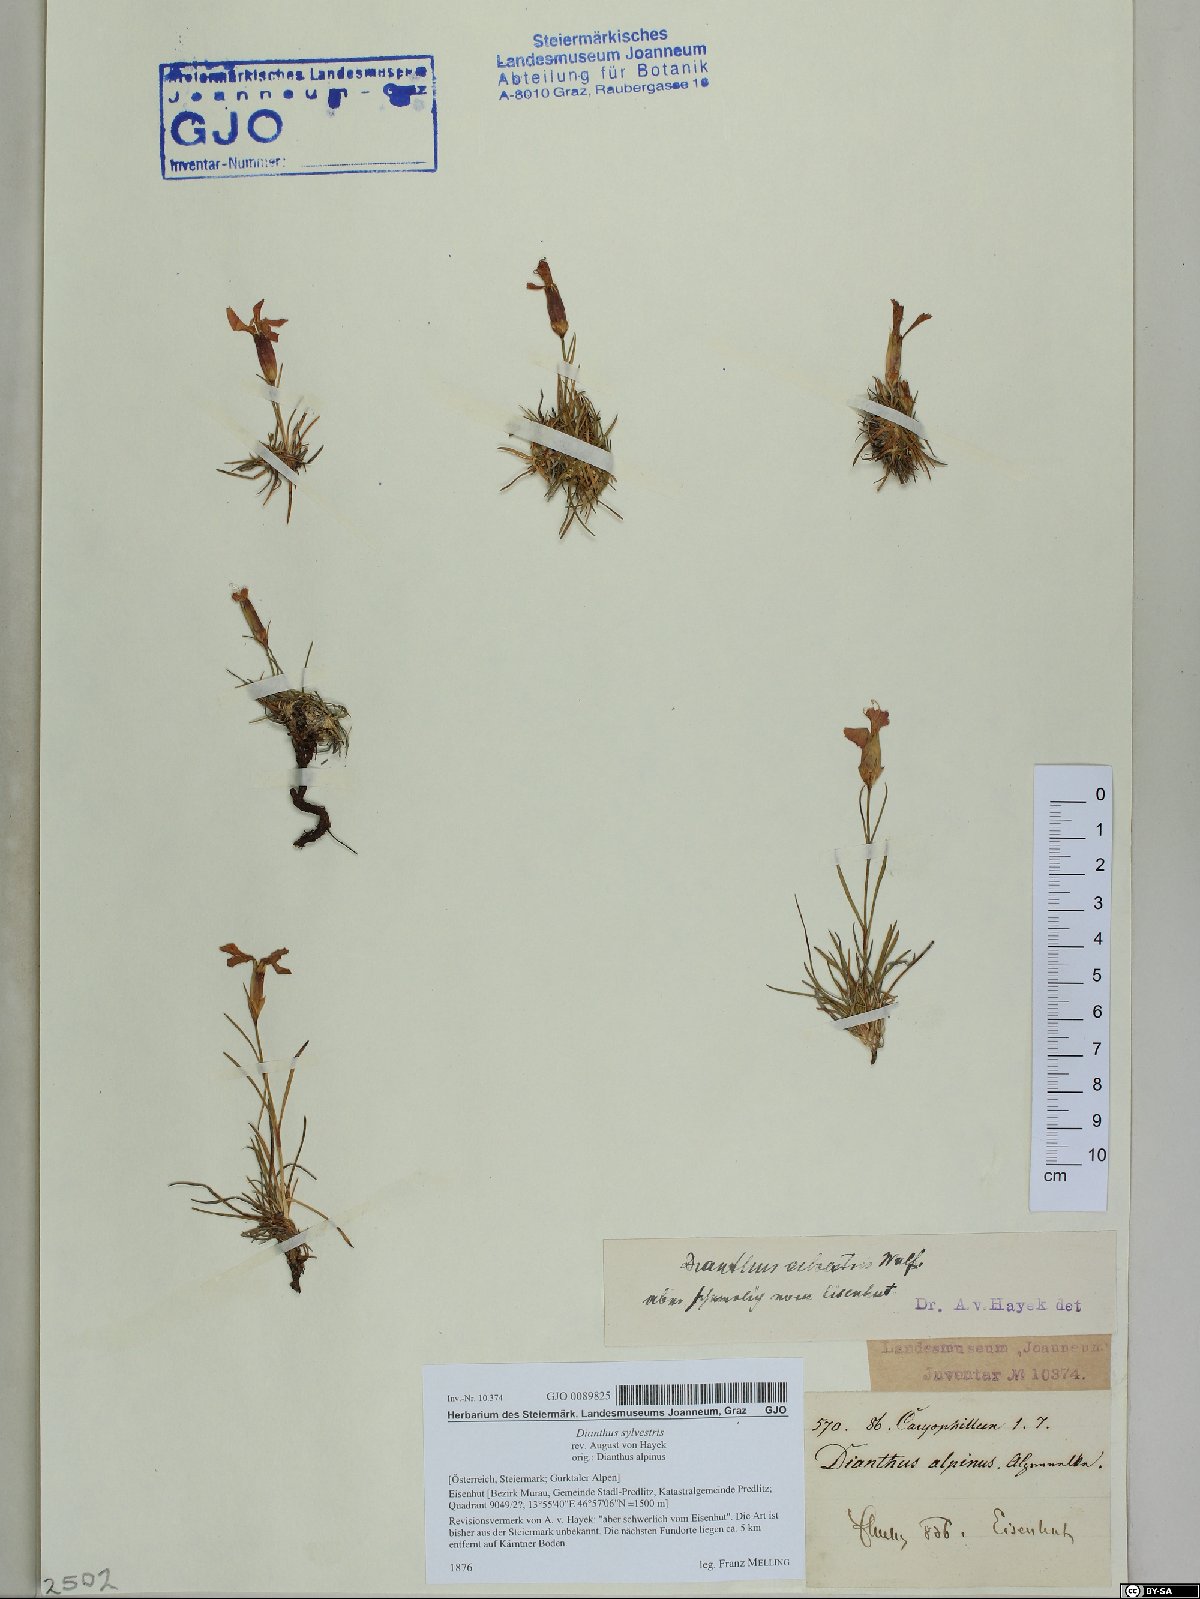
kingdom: Plantae
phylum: Tracheophyta
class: Magnoliopsida
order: Caryophyllales
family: Caryophyllaceae
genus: Dianthus
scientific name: Dianthus sylvestris
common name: Wood pink
